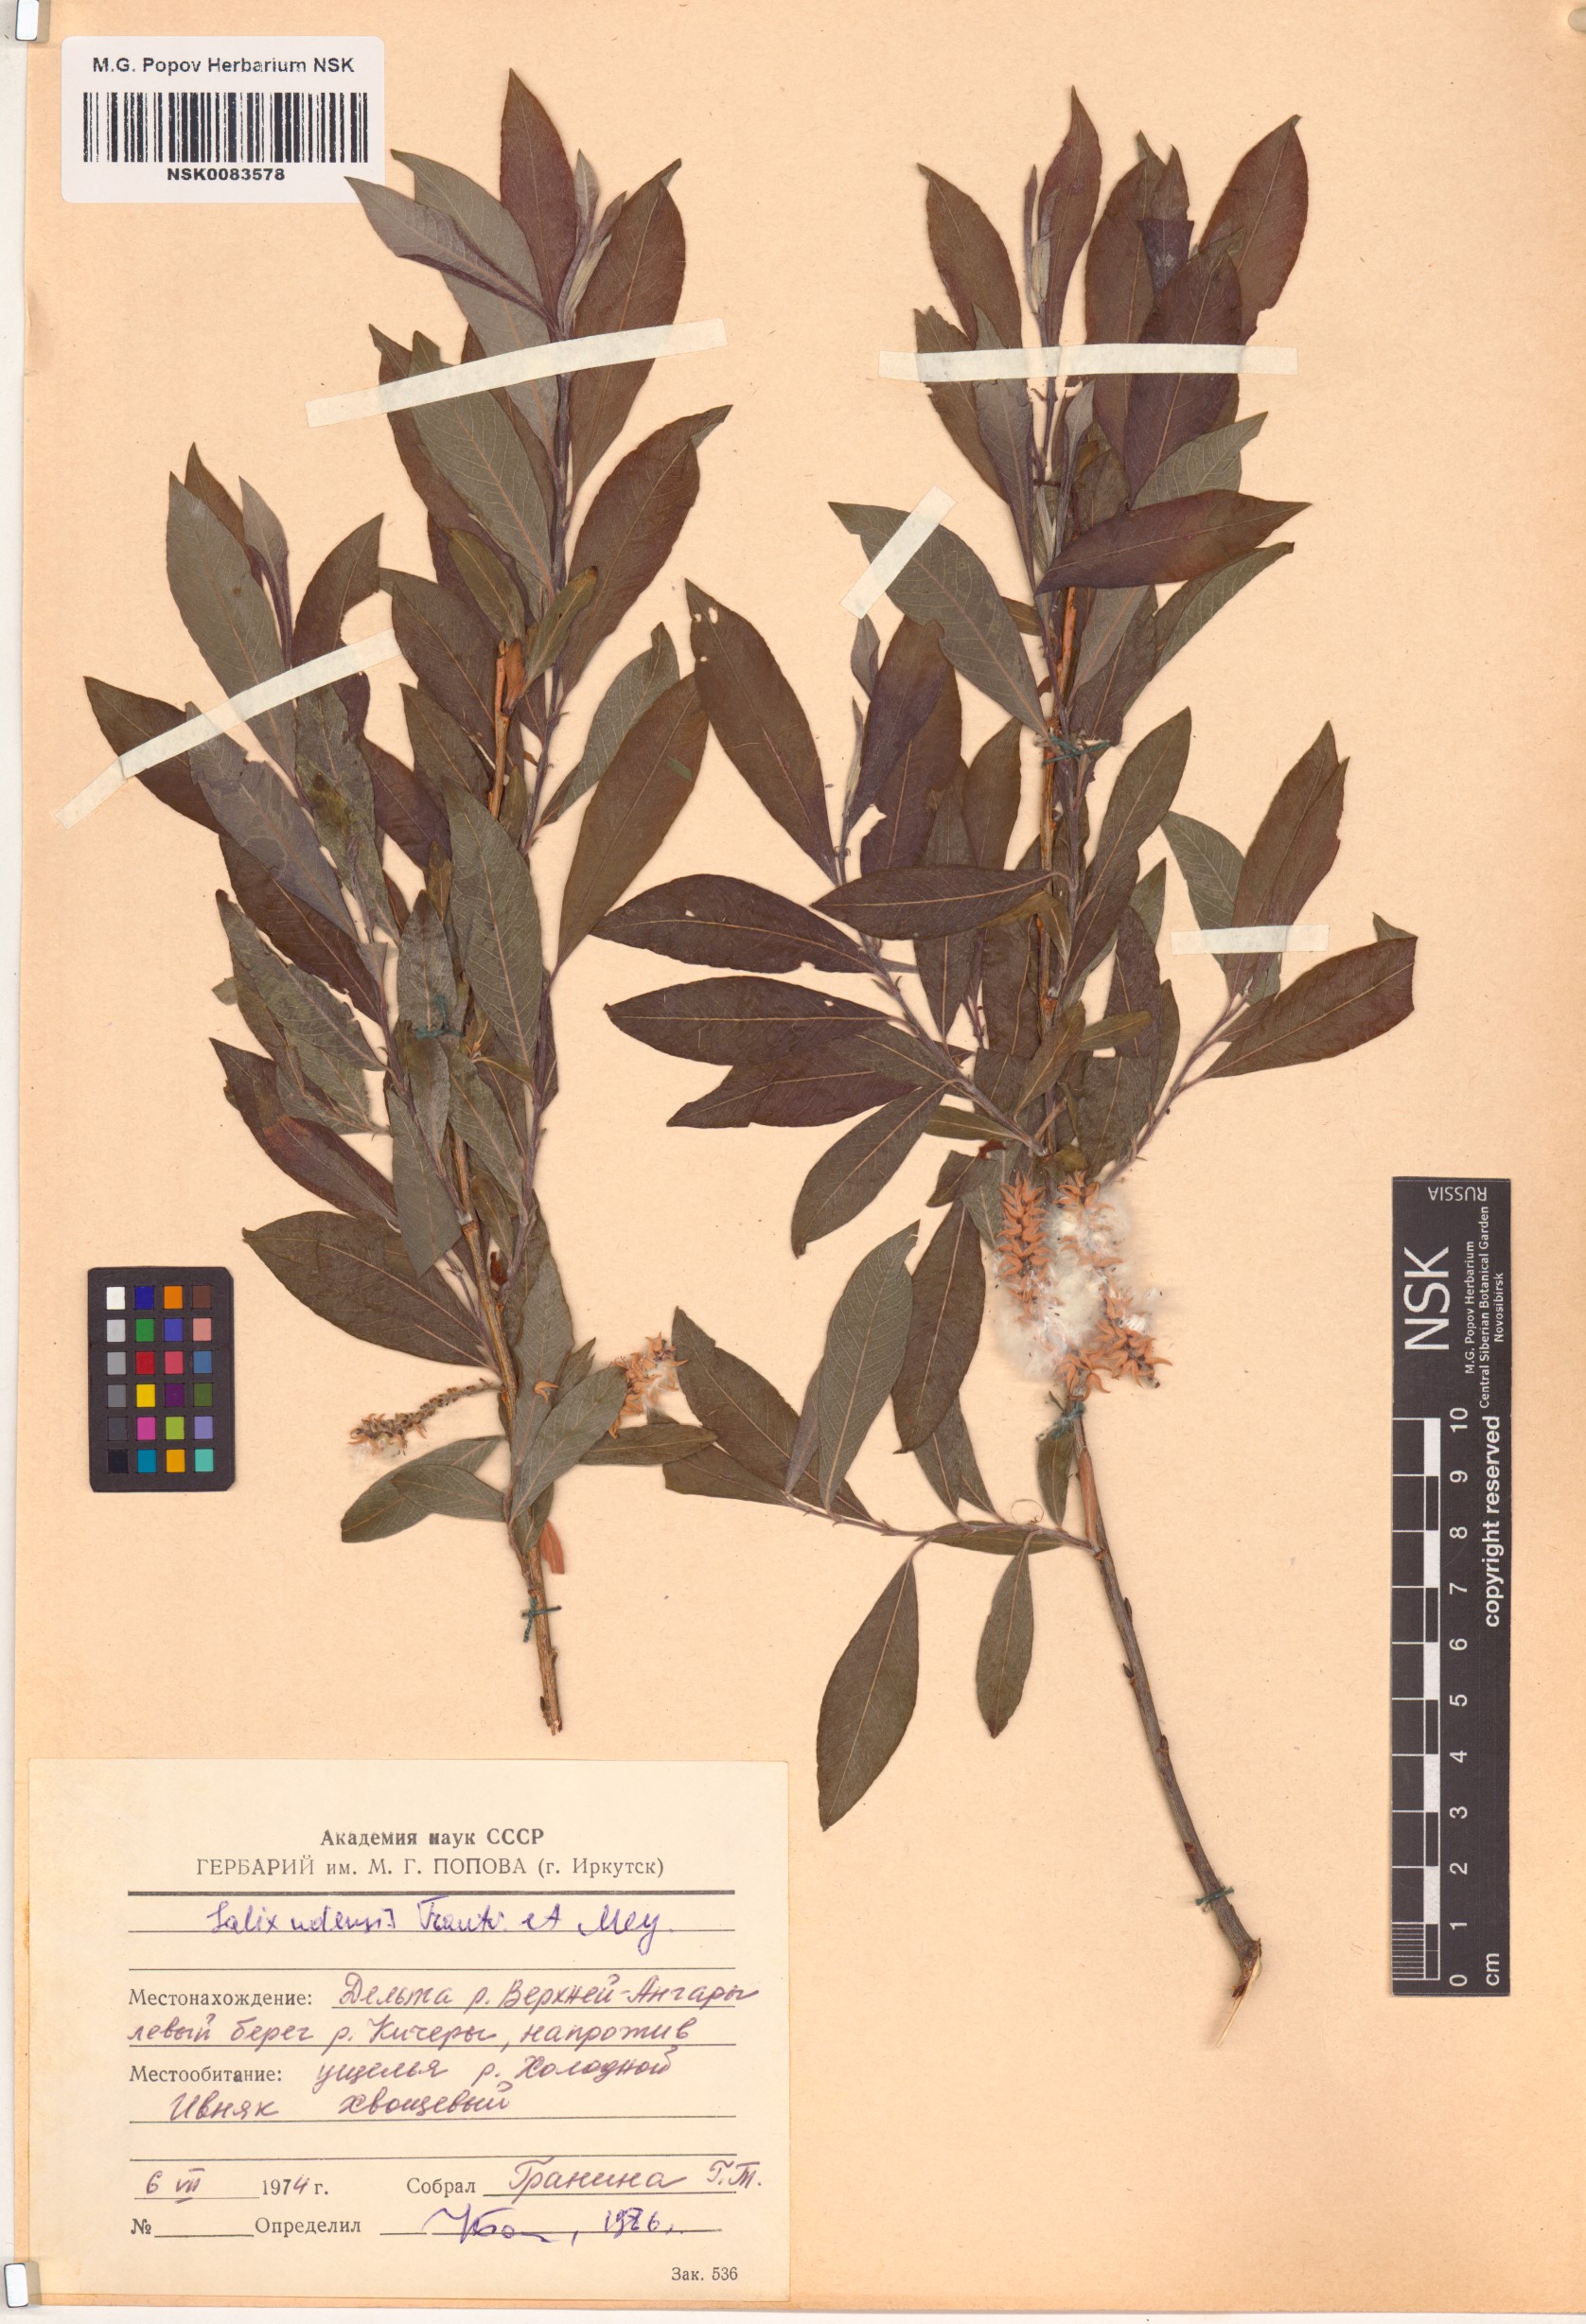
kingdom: Plantae
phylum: Tracheophyta
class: Magnoliopsida
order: Malpighiales
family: Salicaceae
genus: Salix
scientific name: Salix udensis
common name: Sachalin willow
